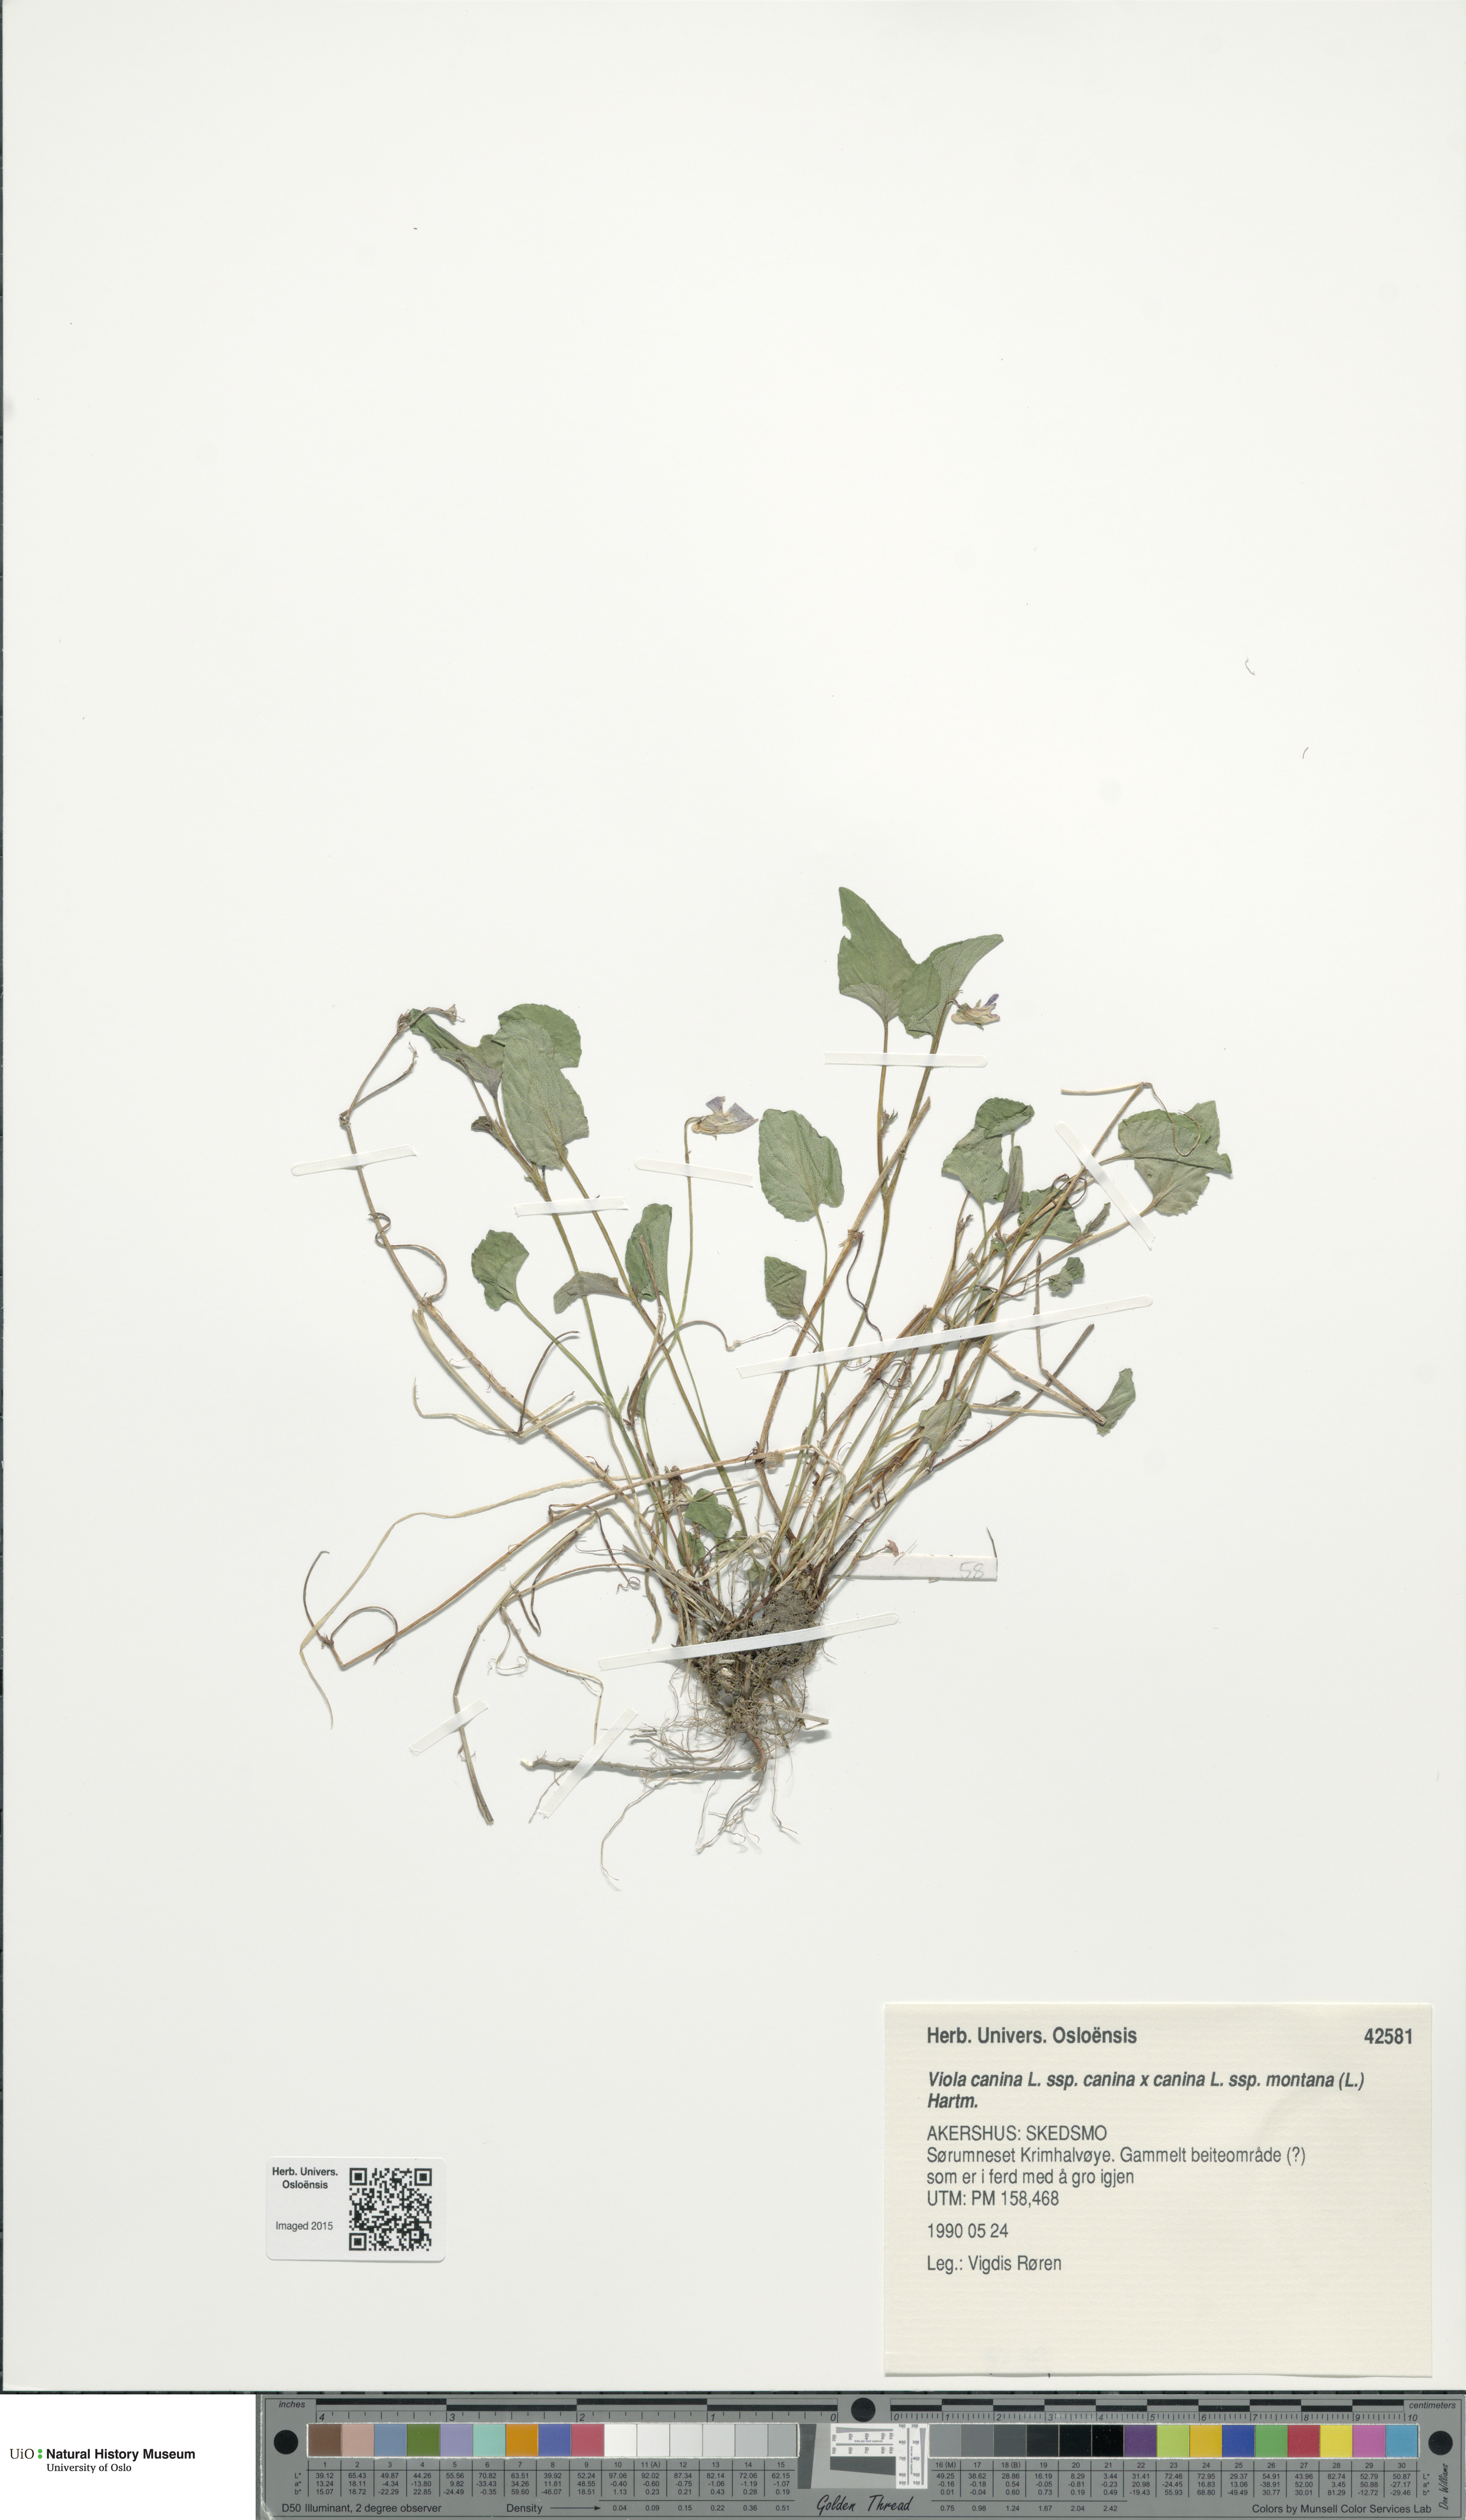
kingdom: Plantae
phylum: Tracheophyta
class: Magnoliopsida
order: Malpighiales
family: Violaceae
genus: Viola
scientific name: Viola
